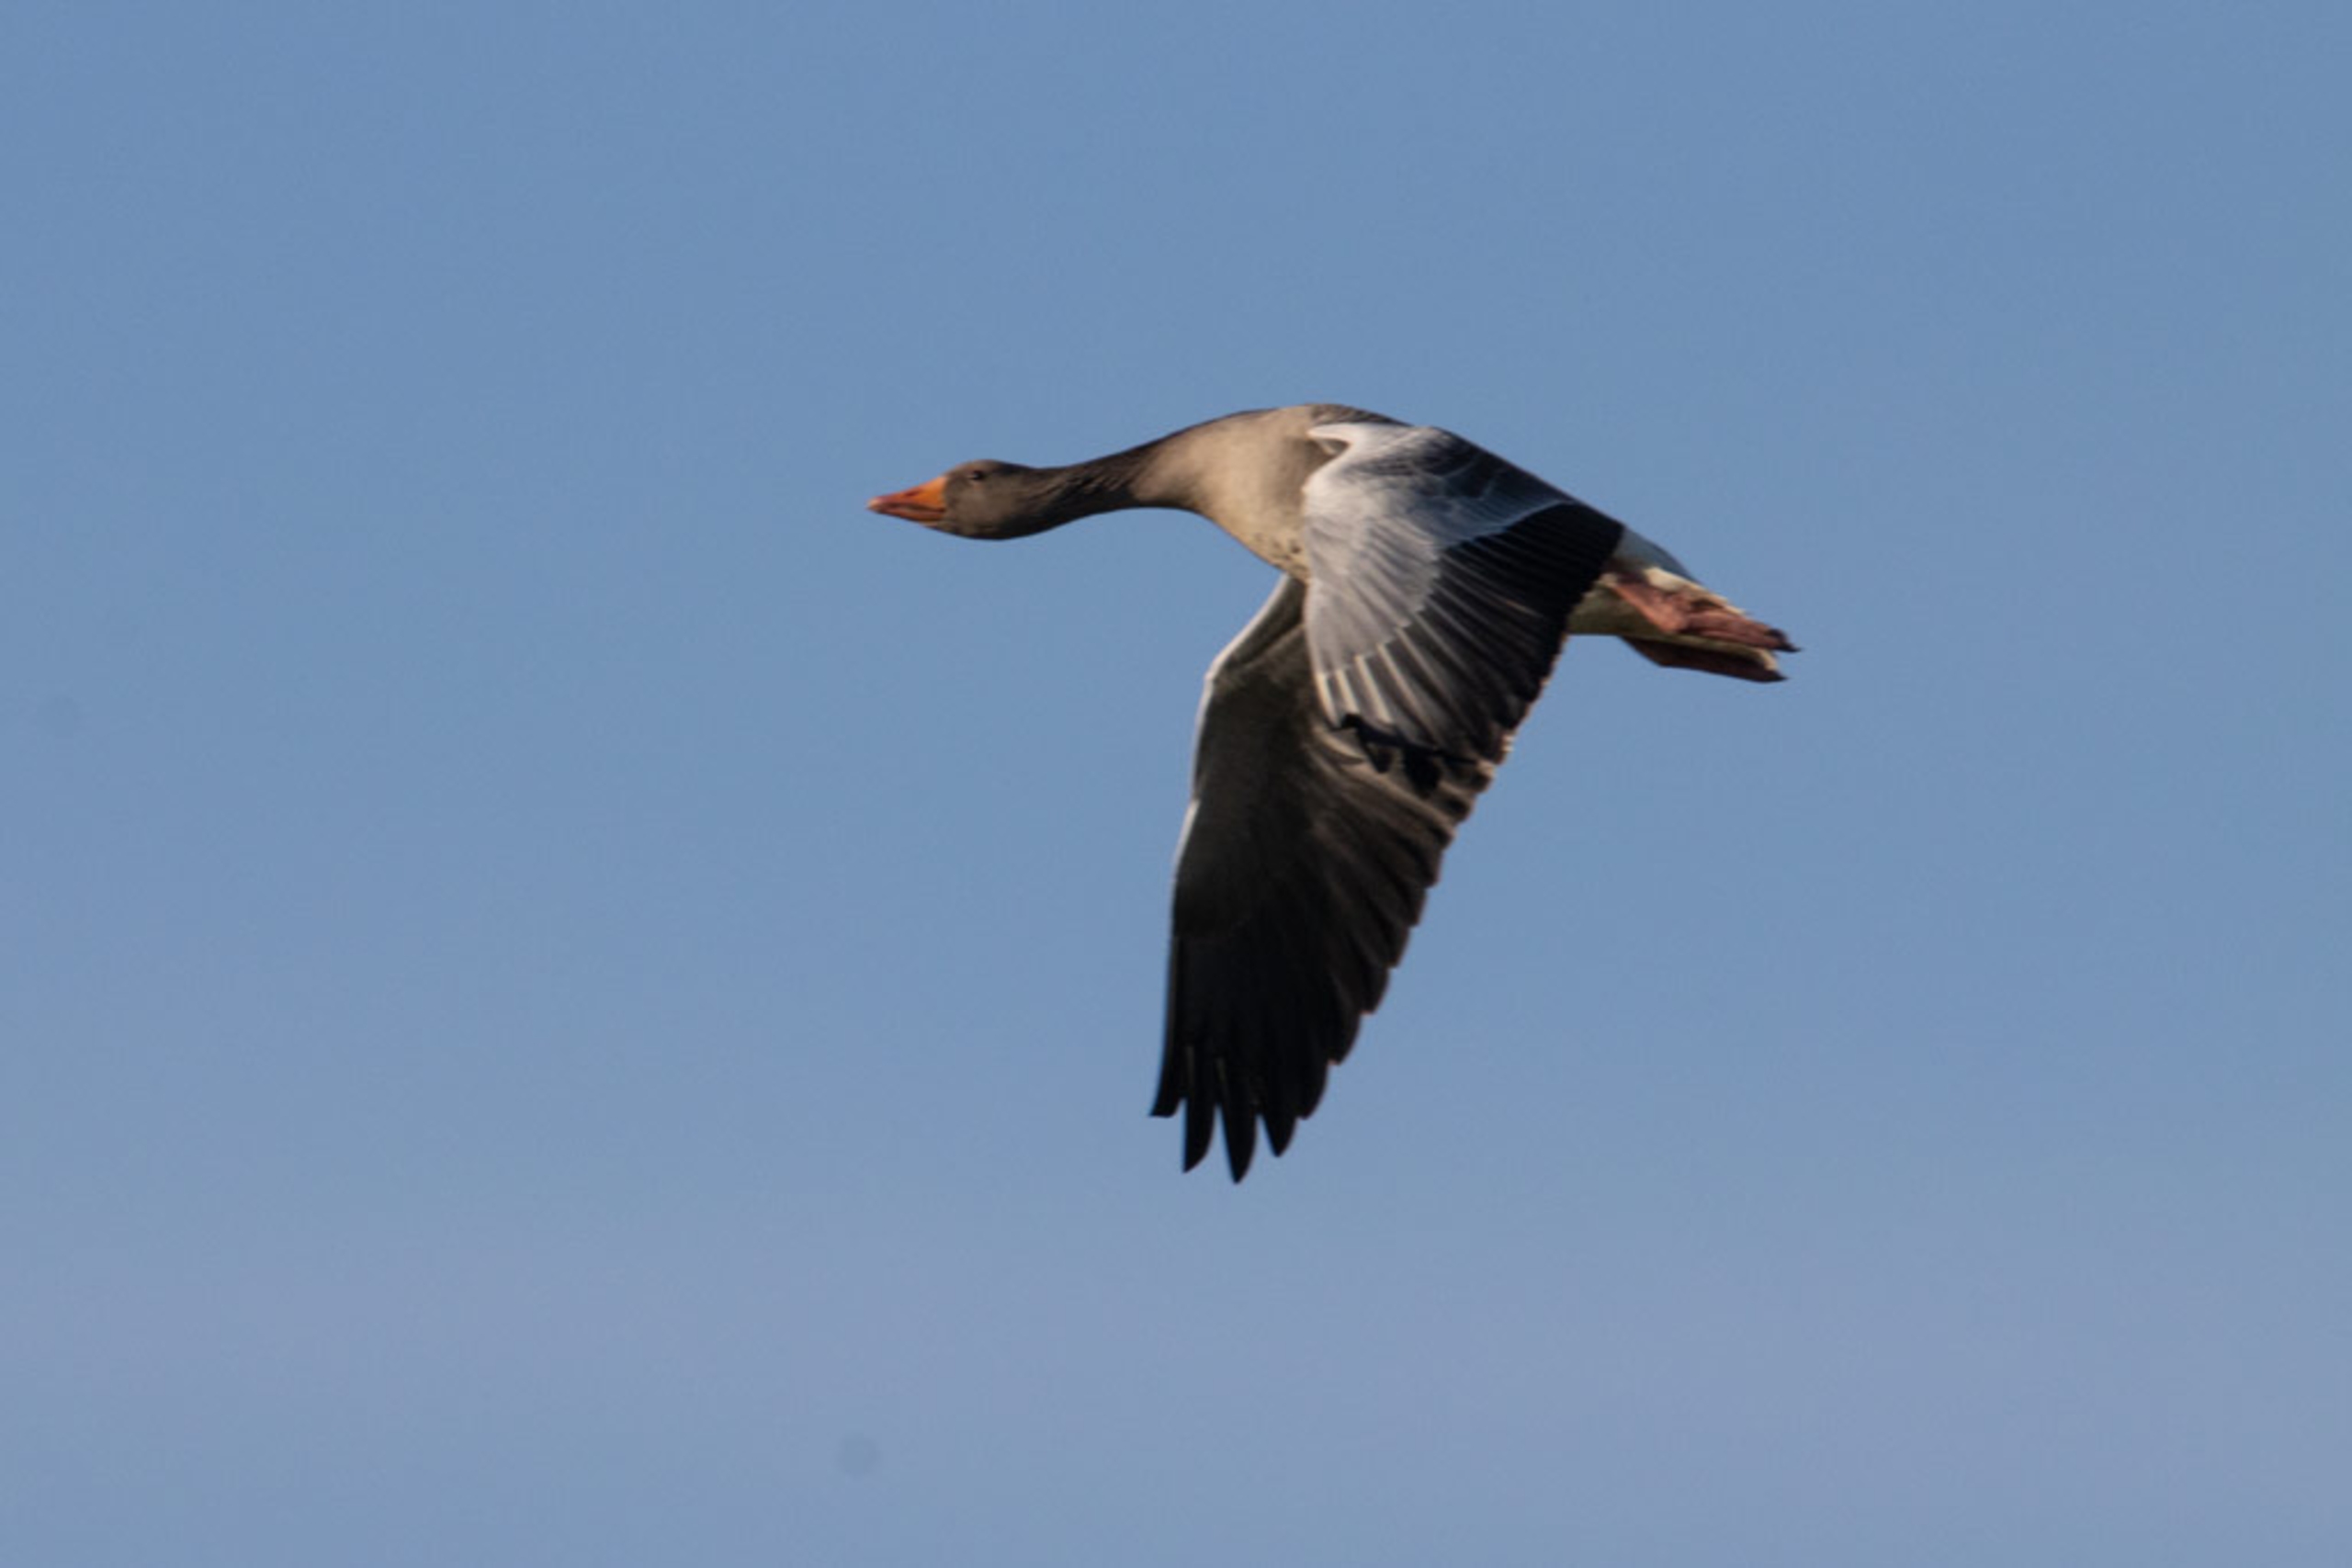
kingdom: Animalia
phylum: Chordata
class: Aves
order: Anseriformes
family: Anatidae
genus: Anser
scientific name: Anser anser
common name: Grågås
